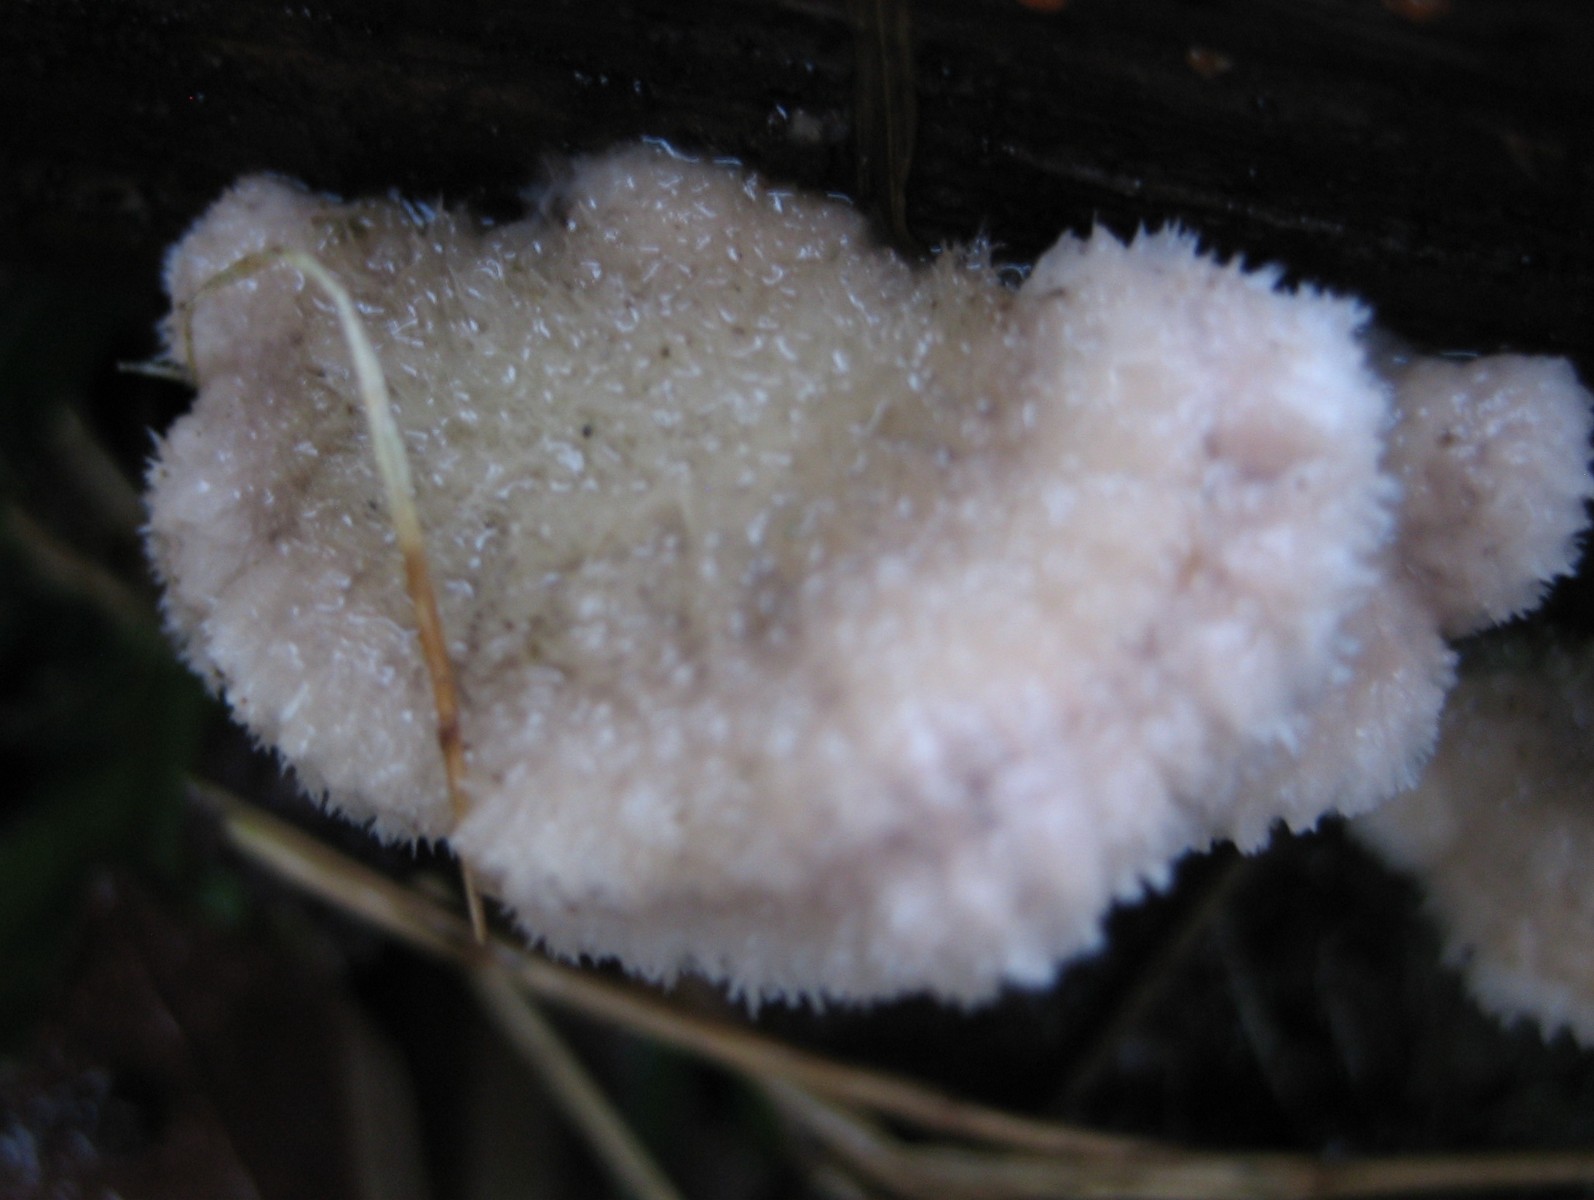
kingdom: Fungi
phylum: Basidiomycota
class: Agaricomycetes
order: Agaricales
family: Schizophyllaceae
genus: Schizophyllum
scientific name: Schizophyllum commune
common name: kløvblad
